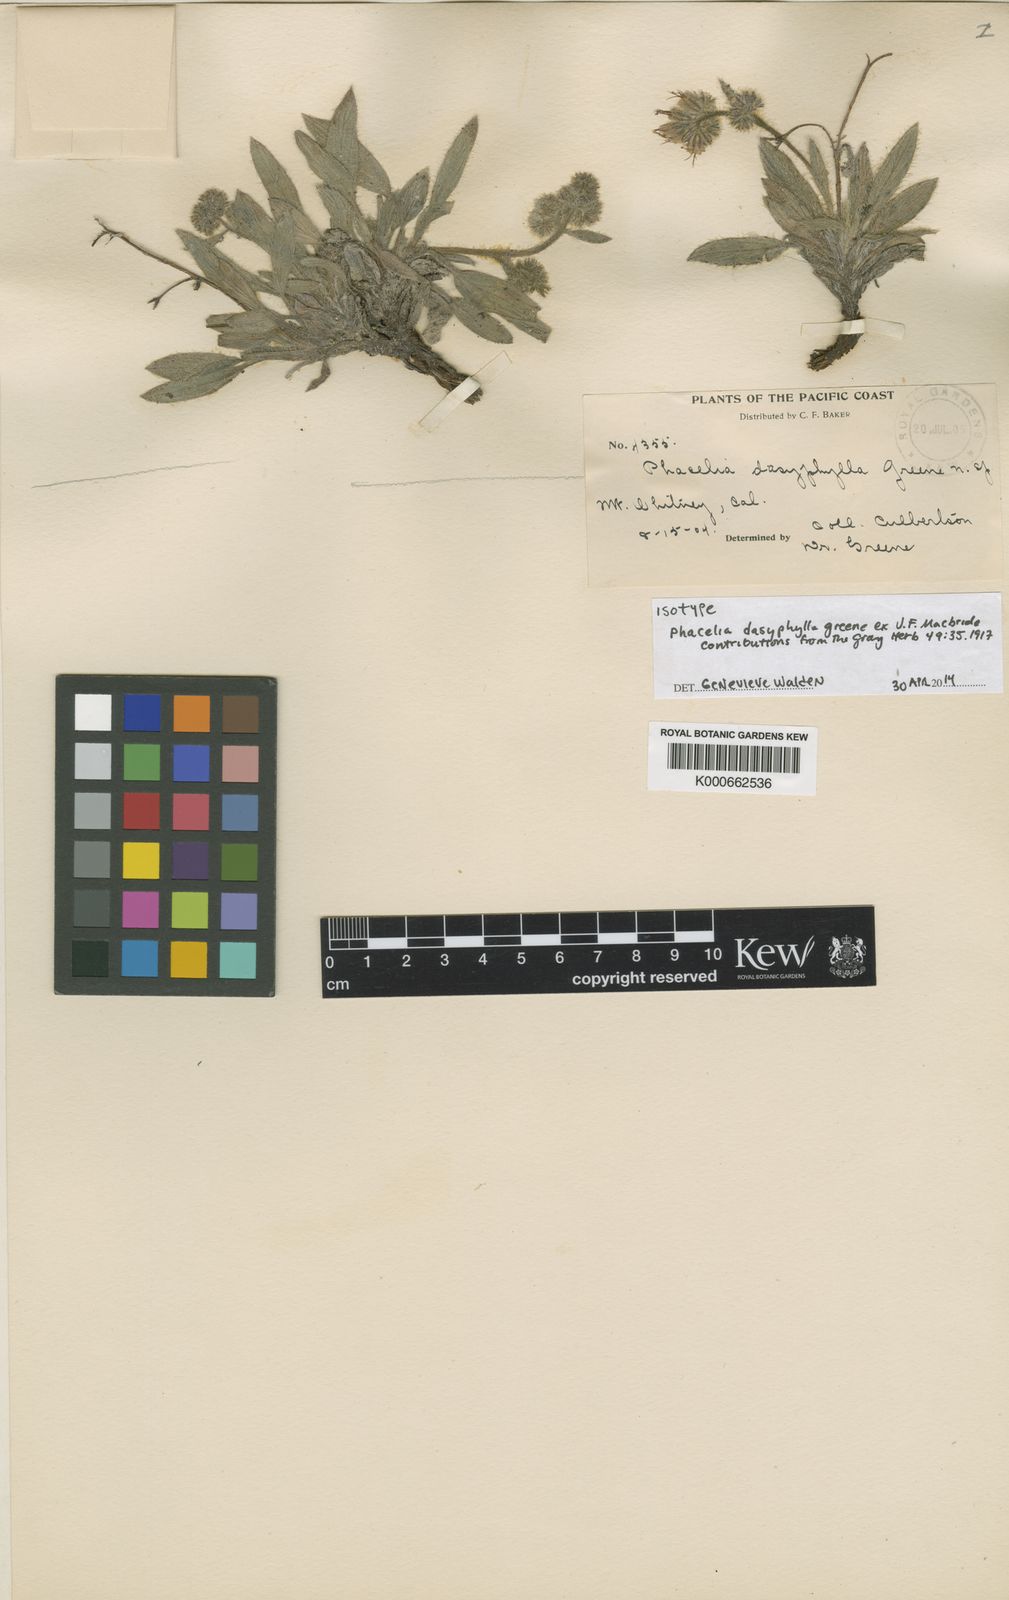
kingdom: Plantae
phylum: Tracheophyta
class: Magnoliopsida
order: Boraginales
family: Hydrophyllaceae
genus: Phacelia
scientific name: Phacelia hastata
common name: Silver-leaved phacelia
